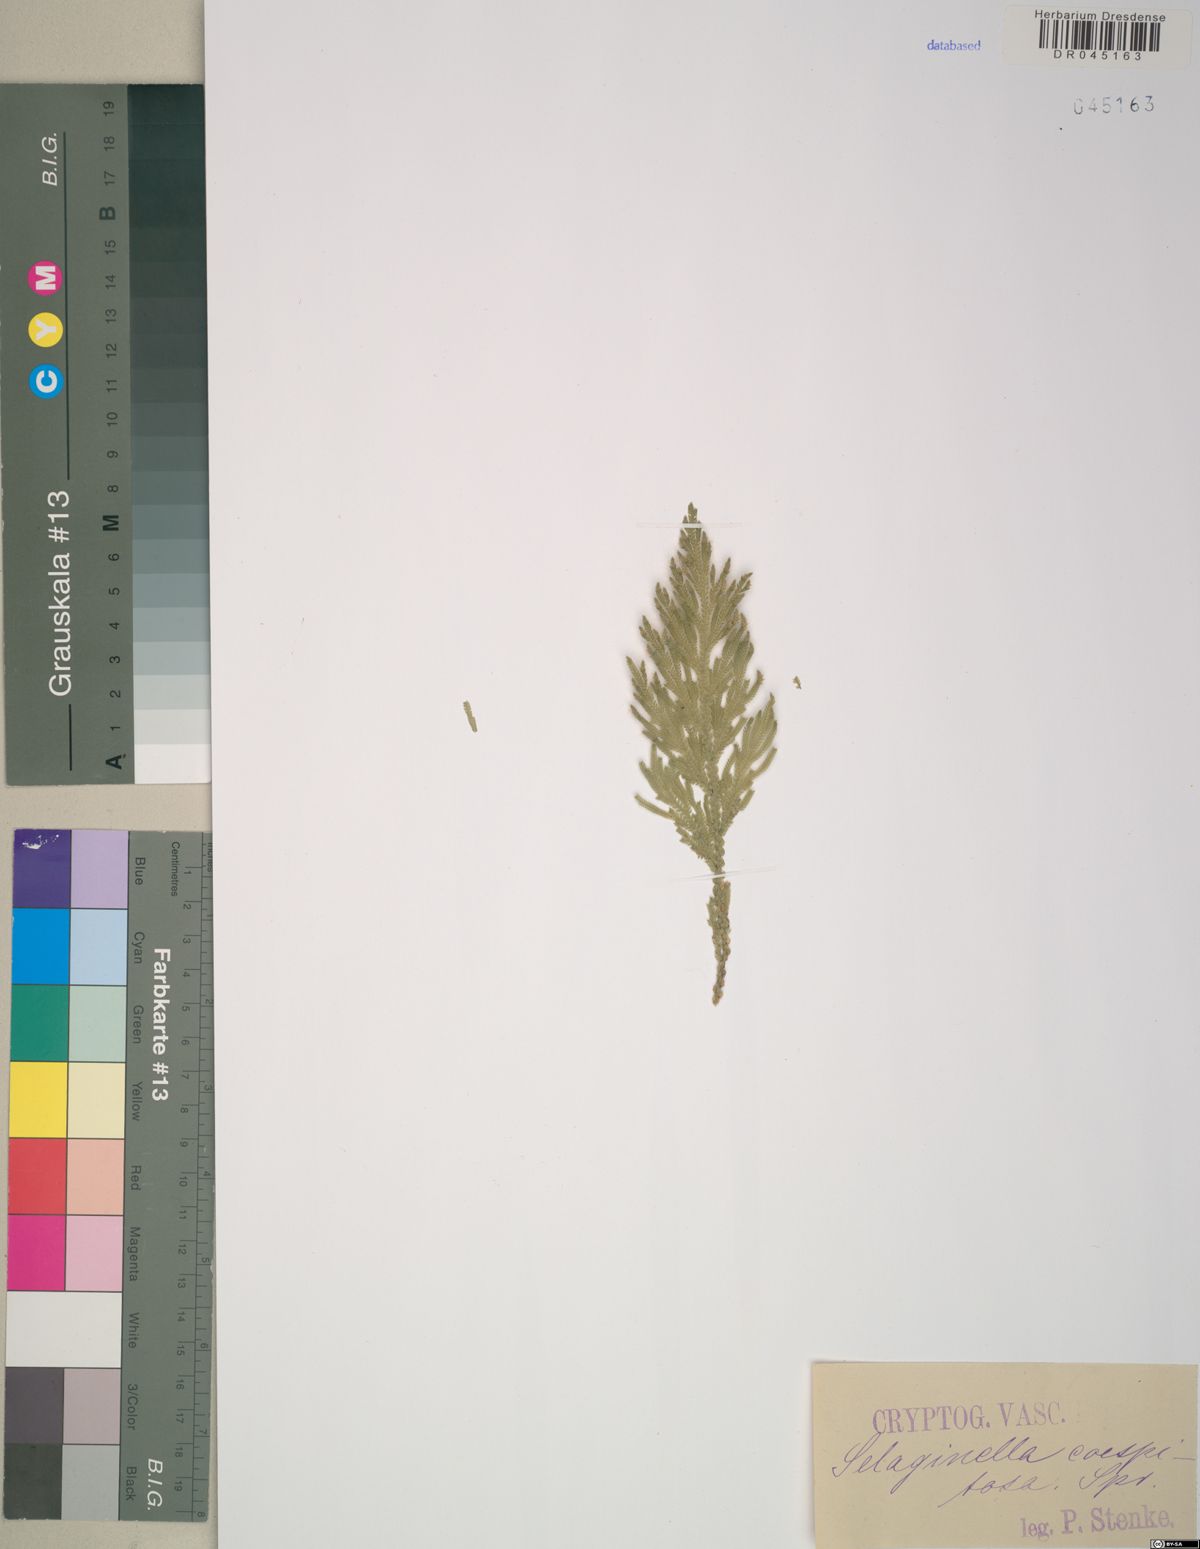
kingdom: Plantae
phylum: Tracheophyta
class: Lycopodiopsida
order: Selaginellales
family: Selaginellaceae
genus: Selaginella
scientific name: Selaginella
